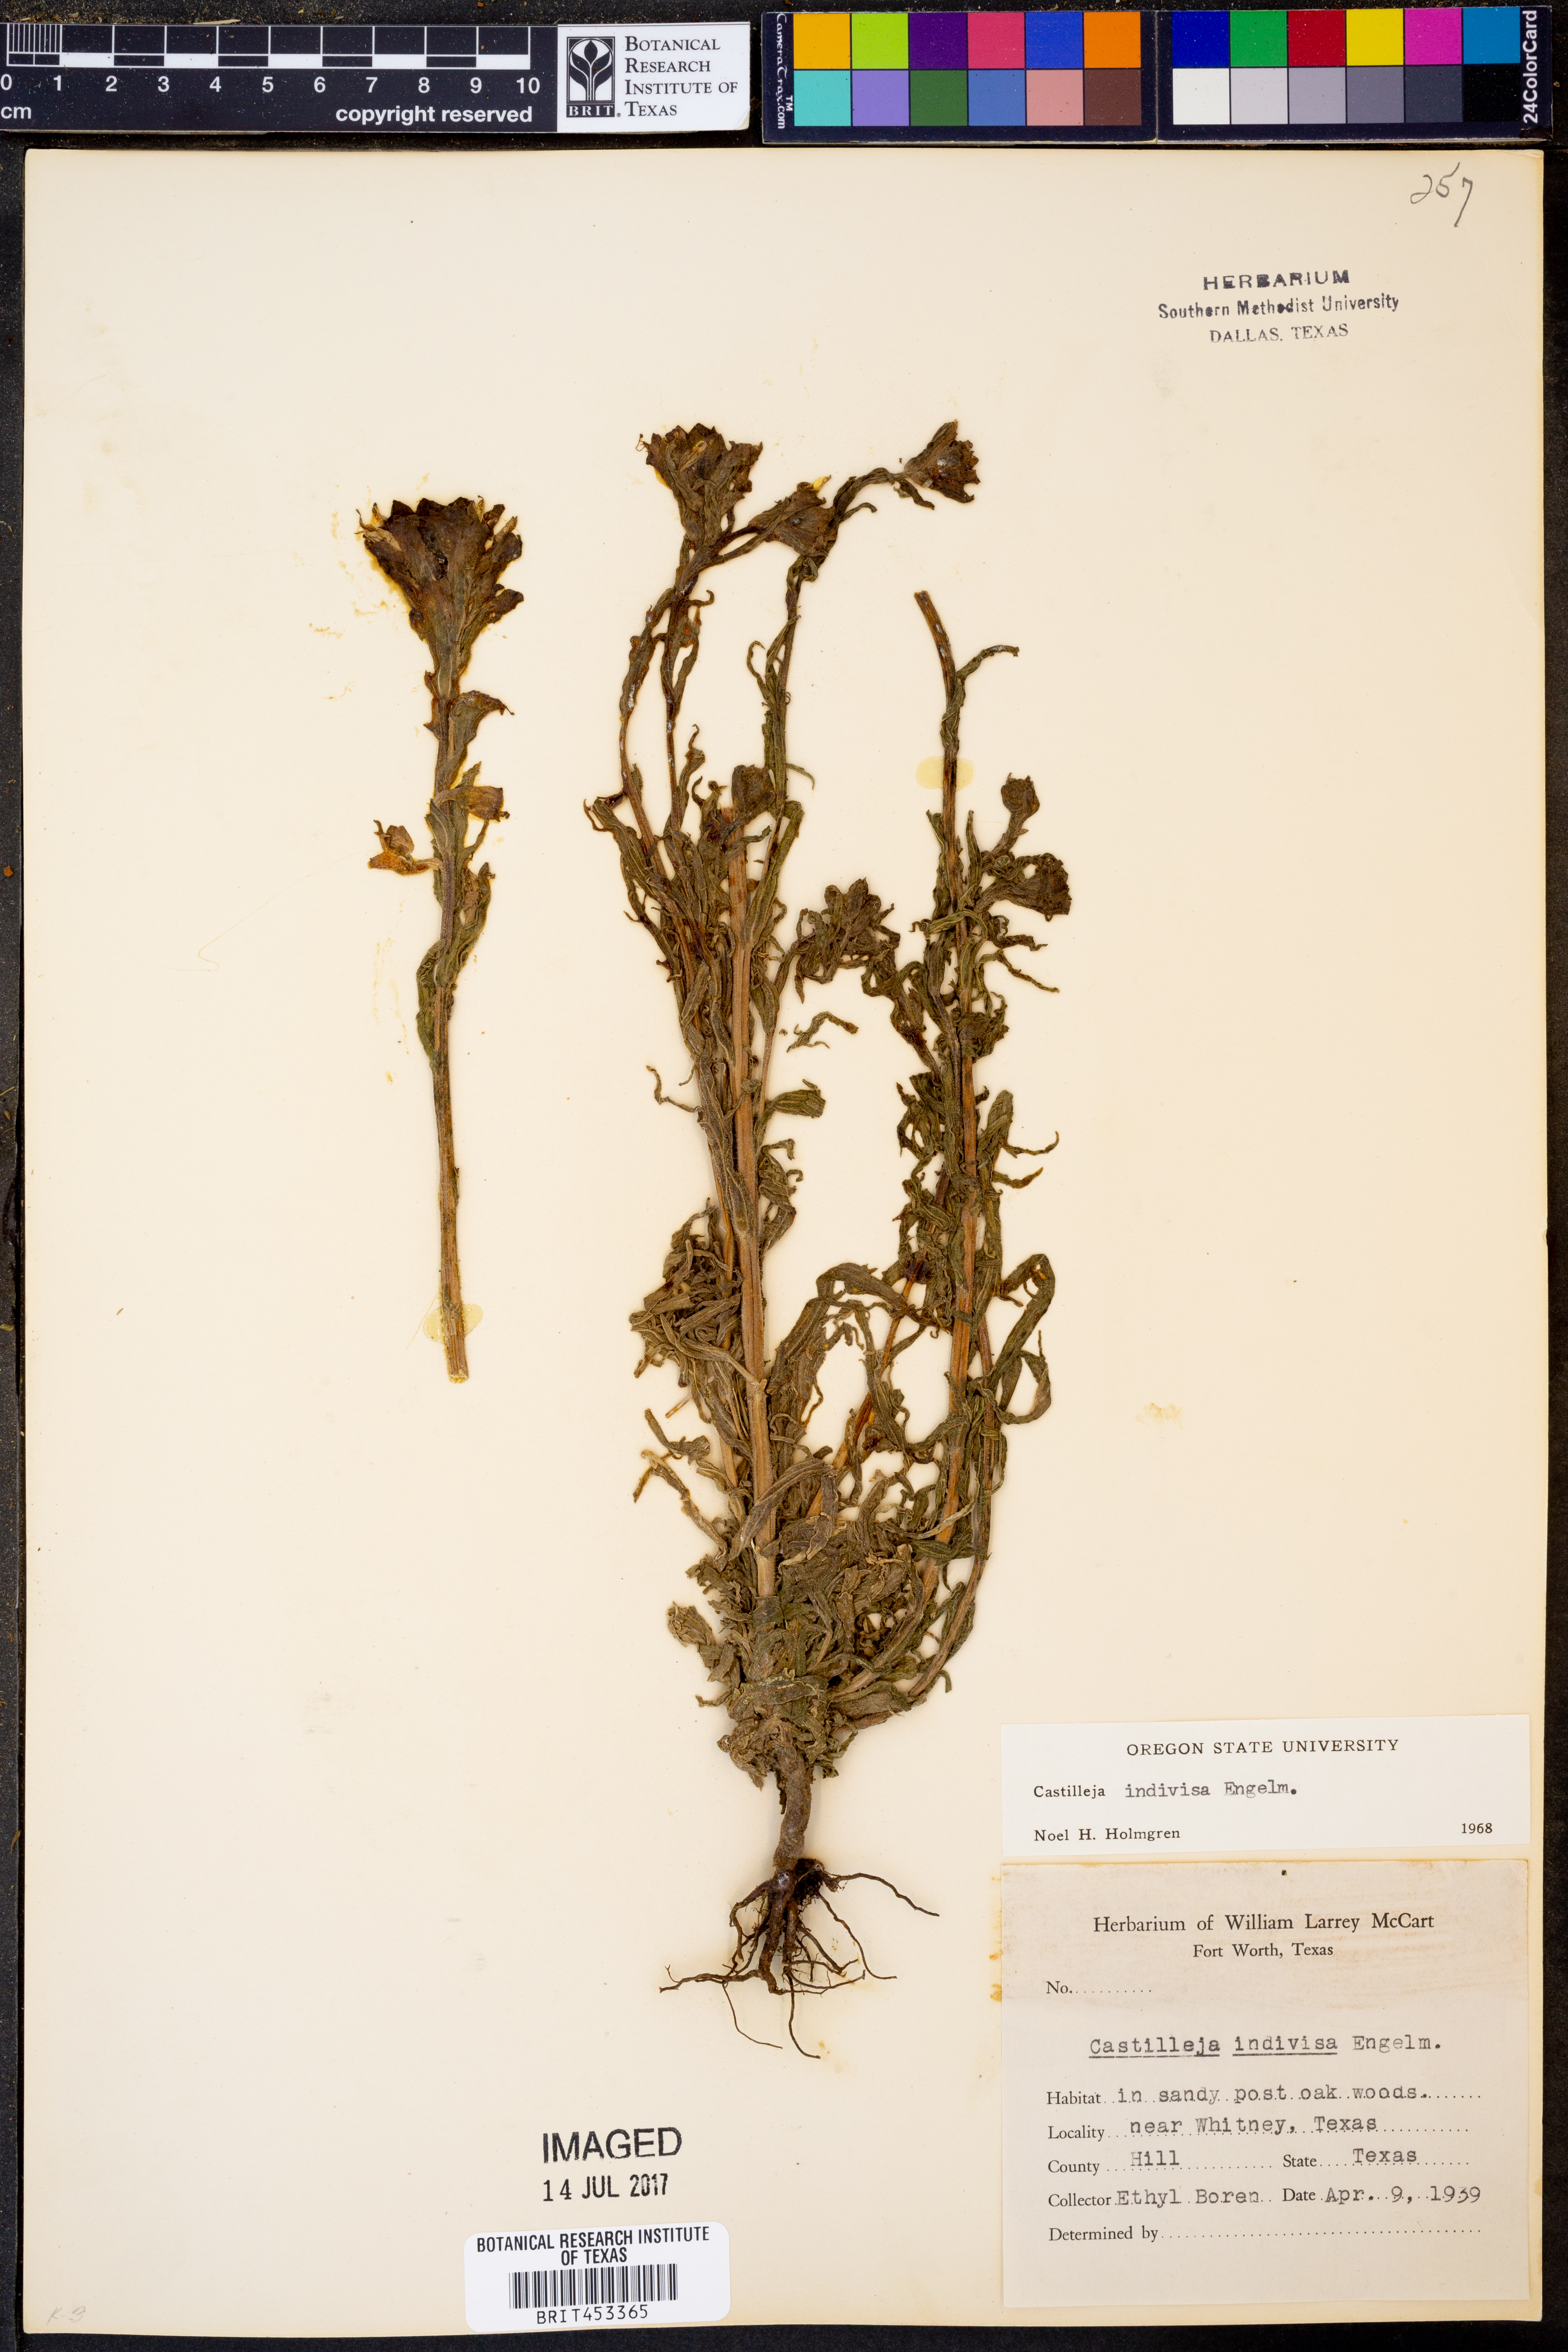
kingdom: Plantae
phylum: Tracheophyta
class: Magnoliopsida
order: Lamiales
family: Orobanchaceae
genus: Castilleja
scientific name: Castilleja indivisa
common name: Texas paintbrush
